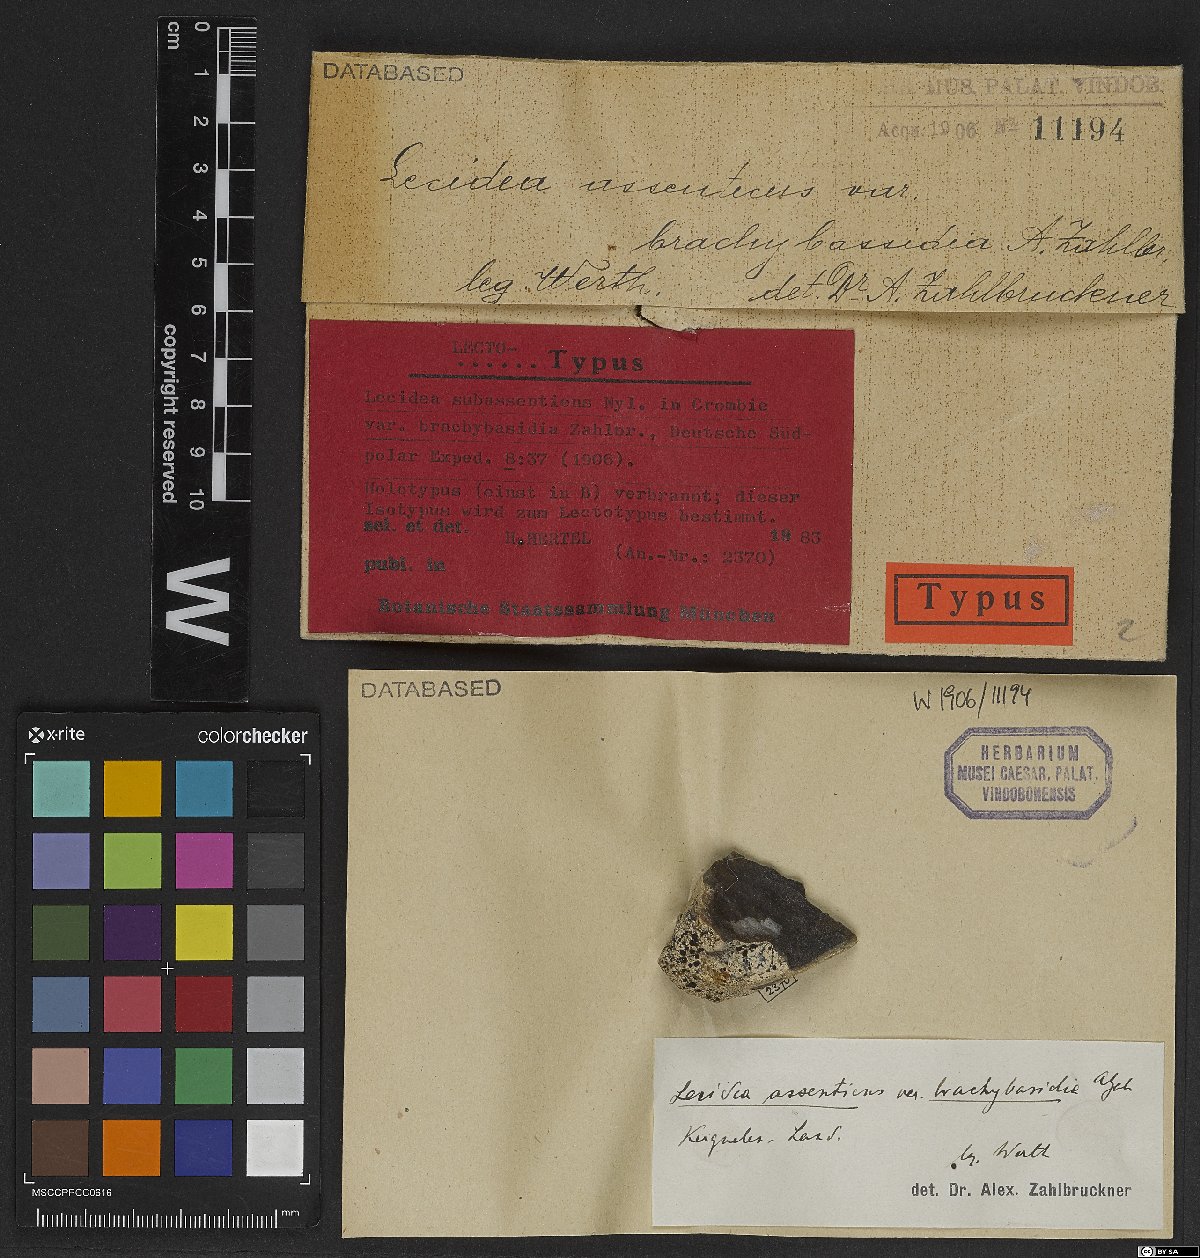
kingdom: Fungi
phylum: Ascomycota
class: Lecanoromycetes
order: Lecideales
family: Lecideaceae
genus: Lecidea
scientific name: Lecidea subassentiens
